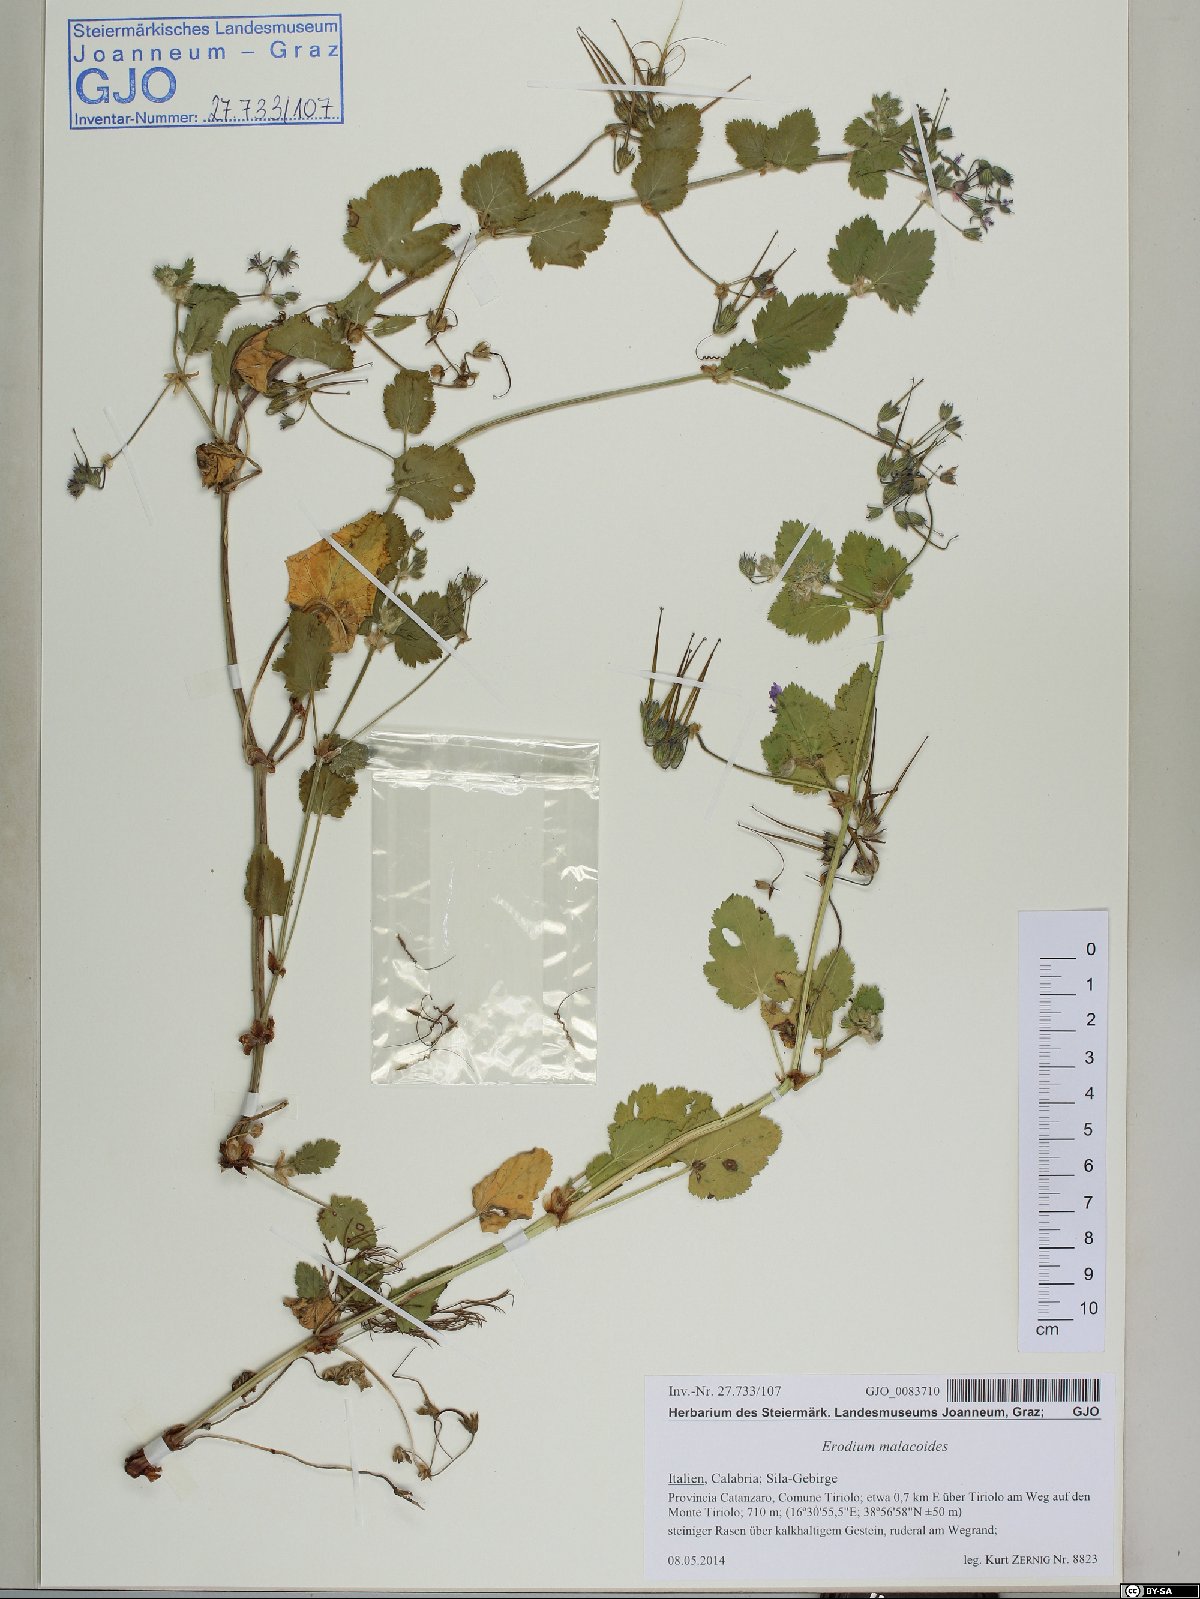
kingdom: Plantae
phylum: Tracheophyta
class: Magnoliopsida
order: Geraniales
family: Geraniaceae
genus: Erodium
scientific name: Erodium malacoides
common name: Soft stork's-bill
